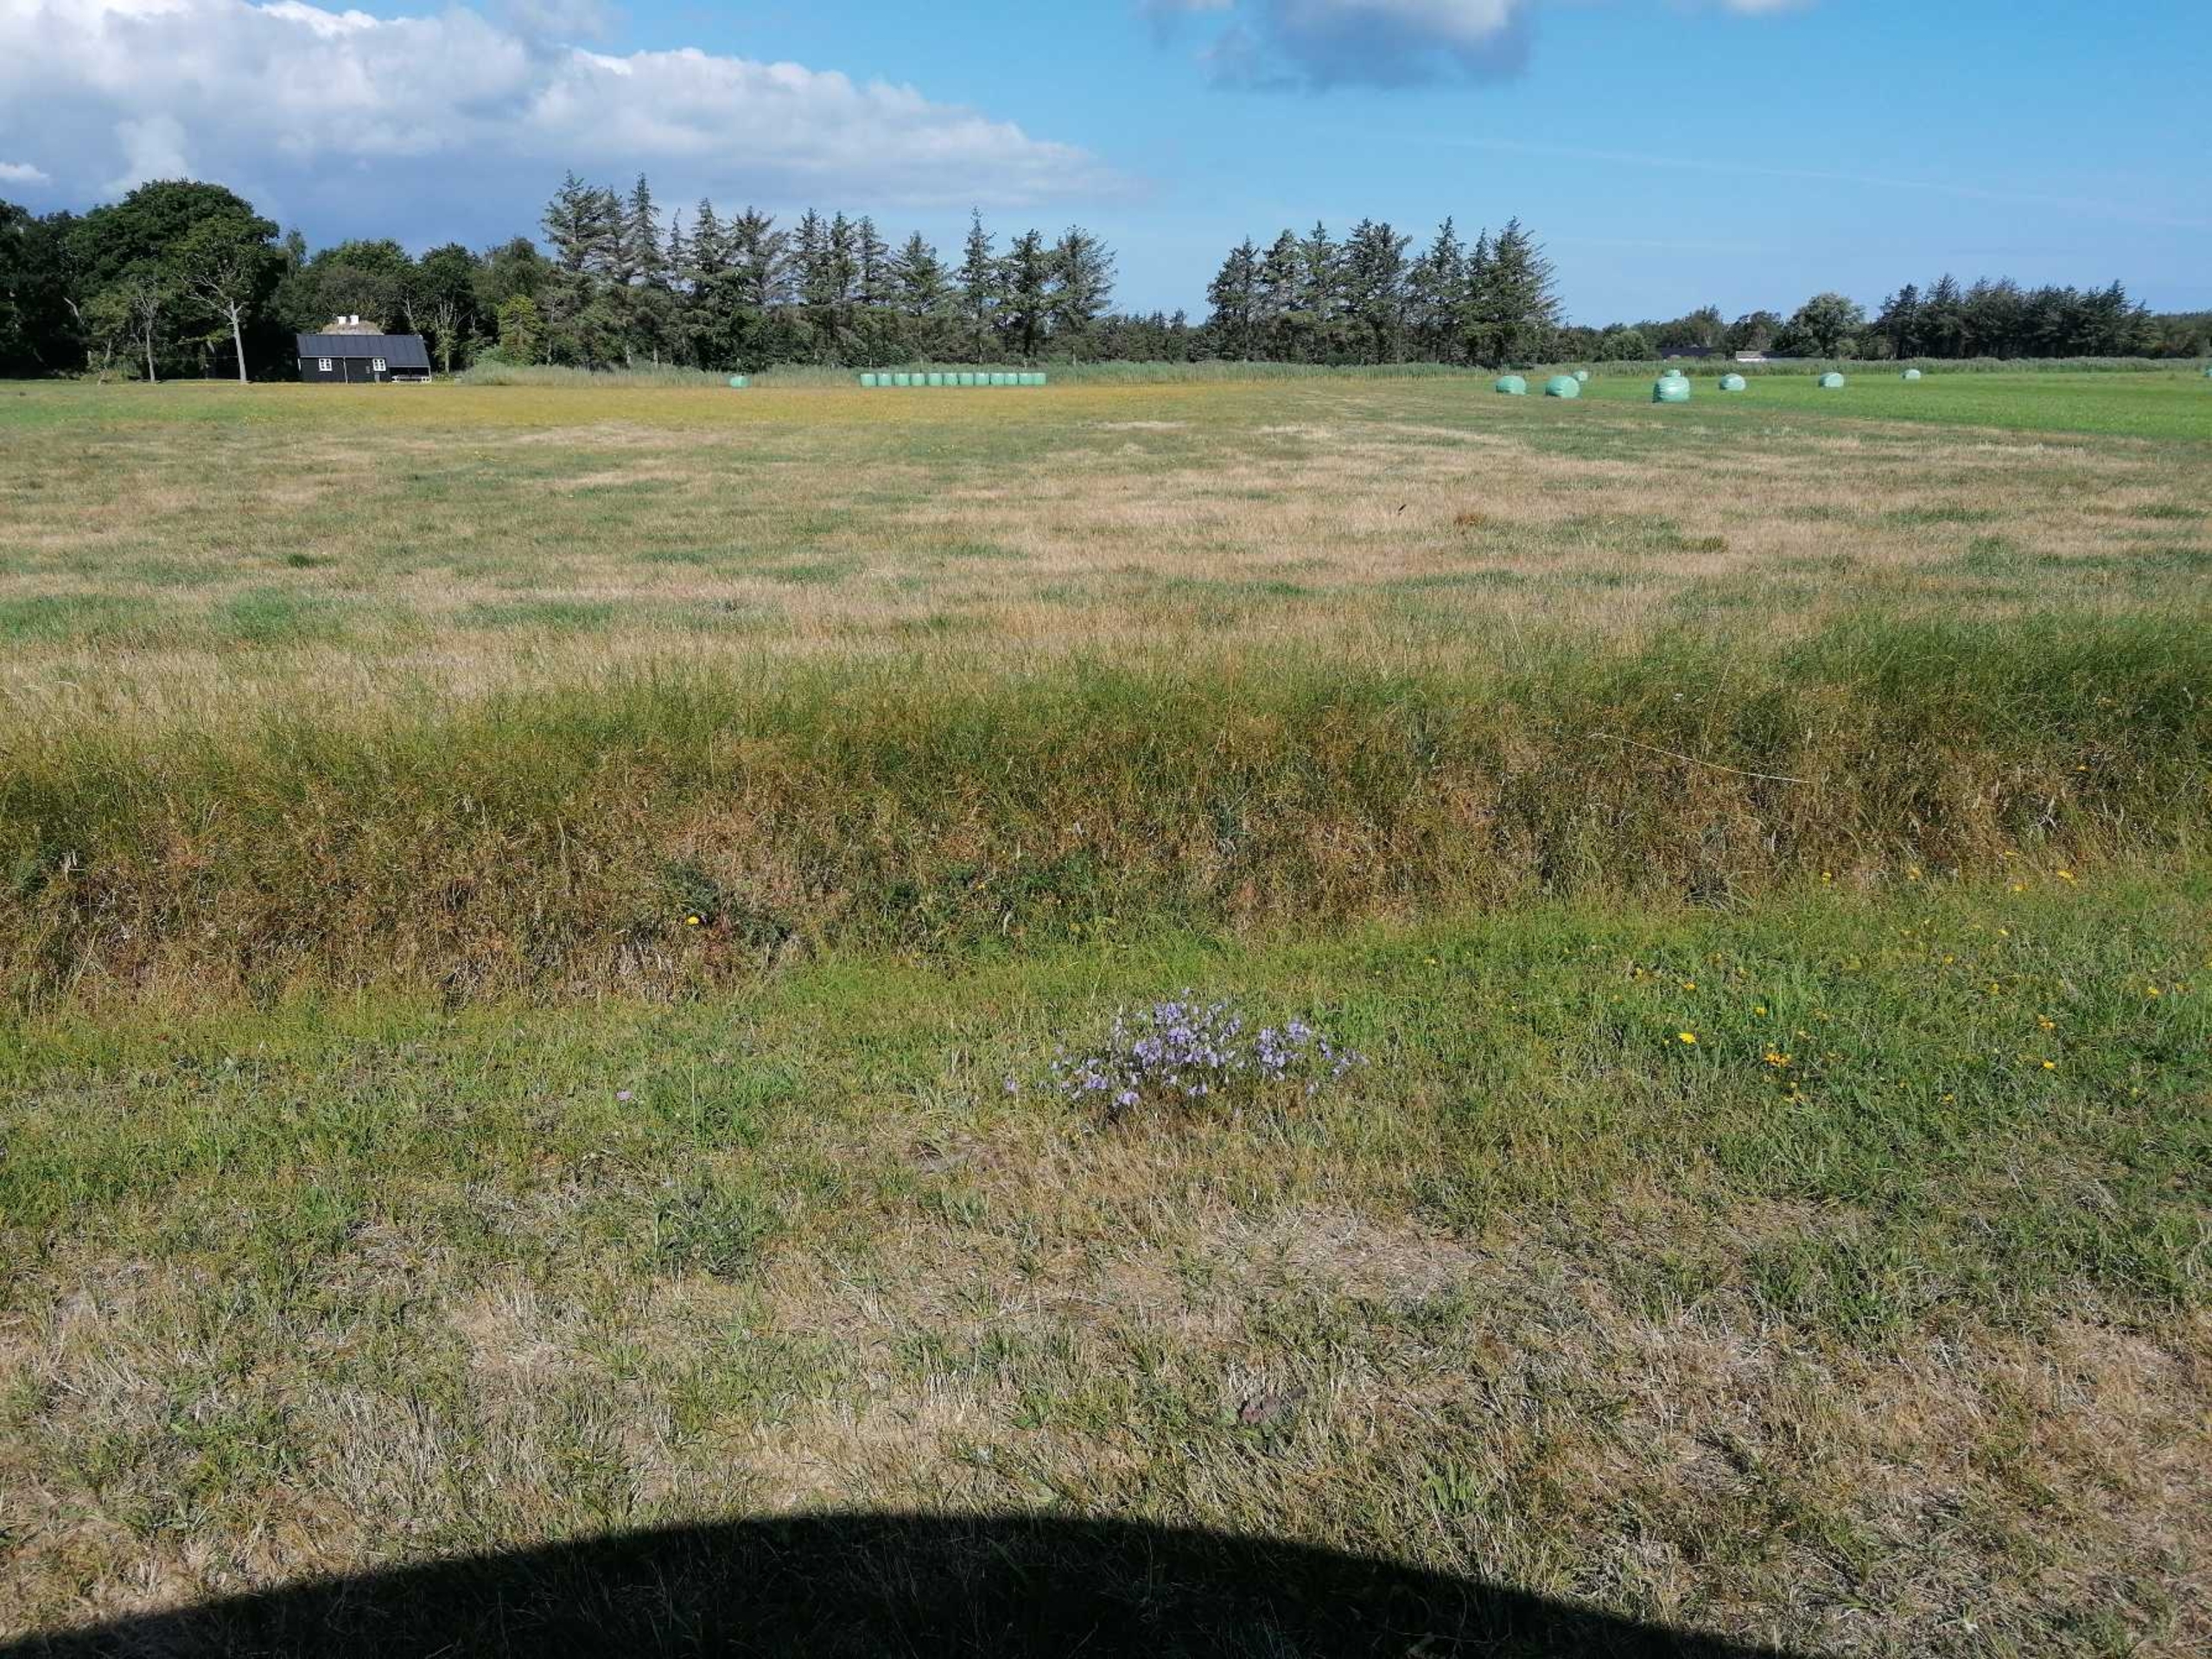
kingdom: Plantae
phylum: Tracheophyta
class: Magnoliopsida
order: Asterales
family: Campanulaceae
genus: Campanula
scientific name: Campanula rotundifolia
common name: Liden klokke
